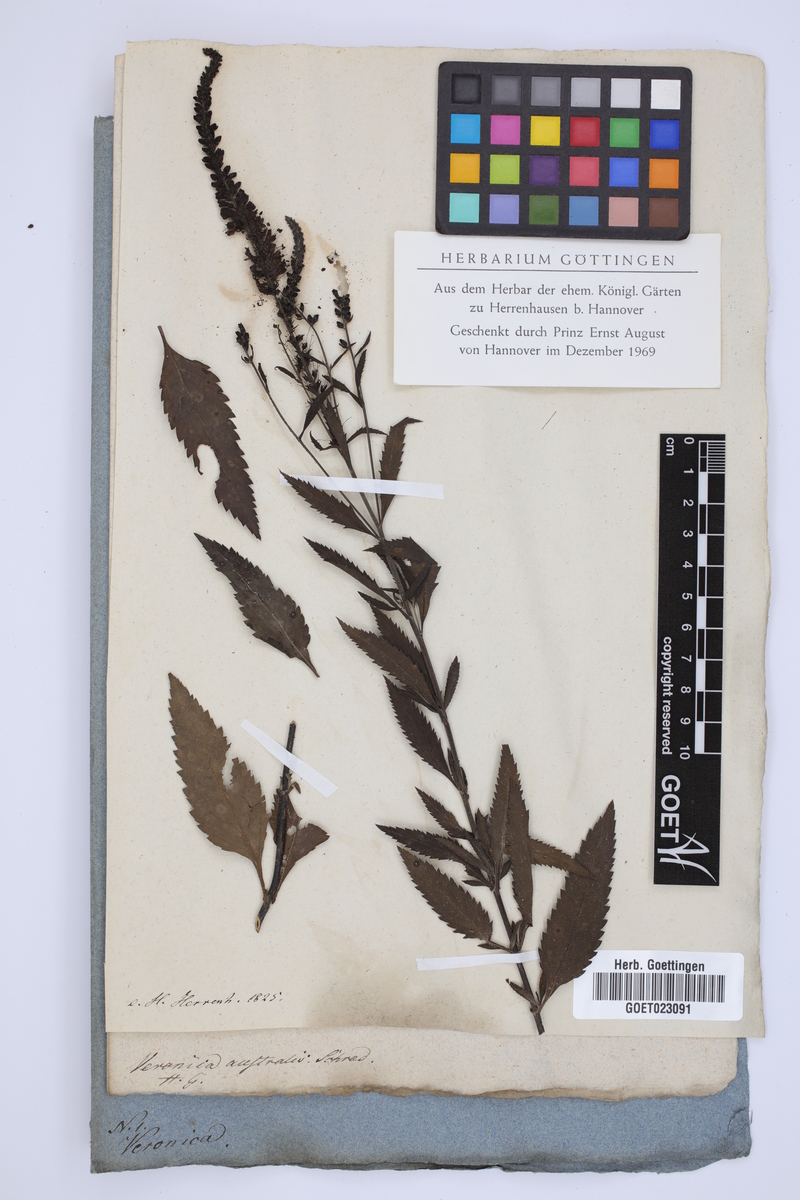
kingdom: Plantae
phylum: Tracheophyta
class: Magnoliopsida
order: Lamiales
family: Plantaginaceae
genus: Veronica
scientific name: Veronica spicata
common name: Spiked speedwell
